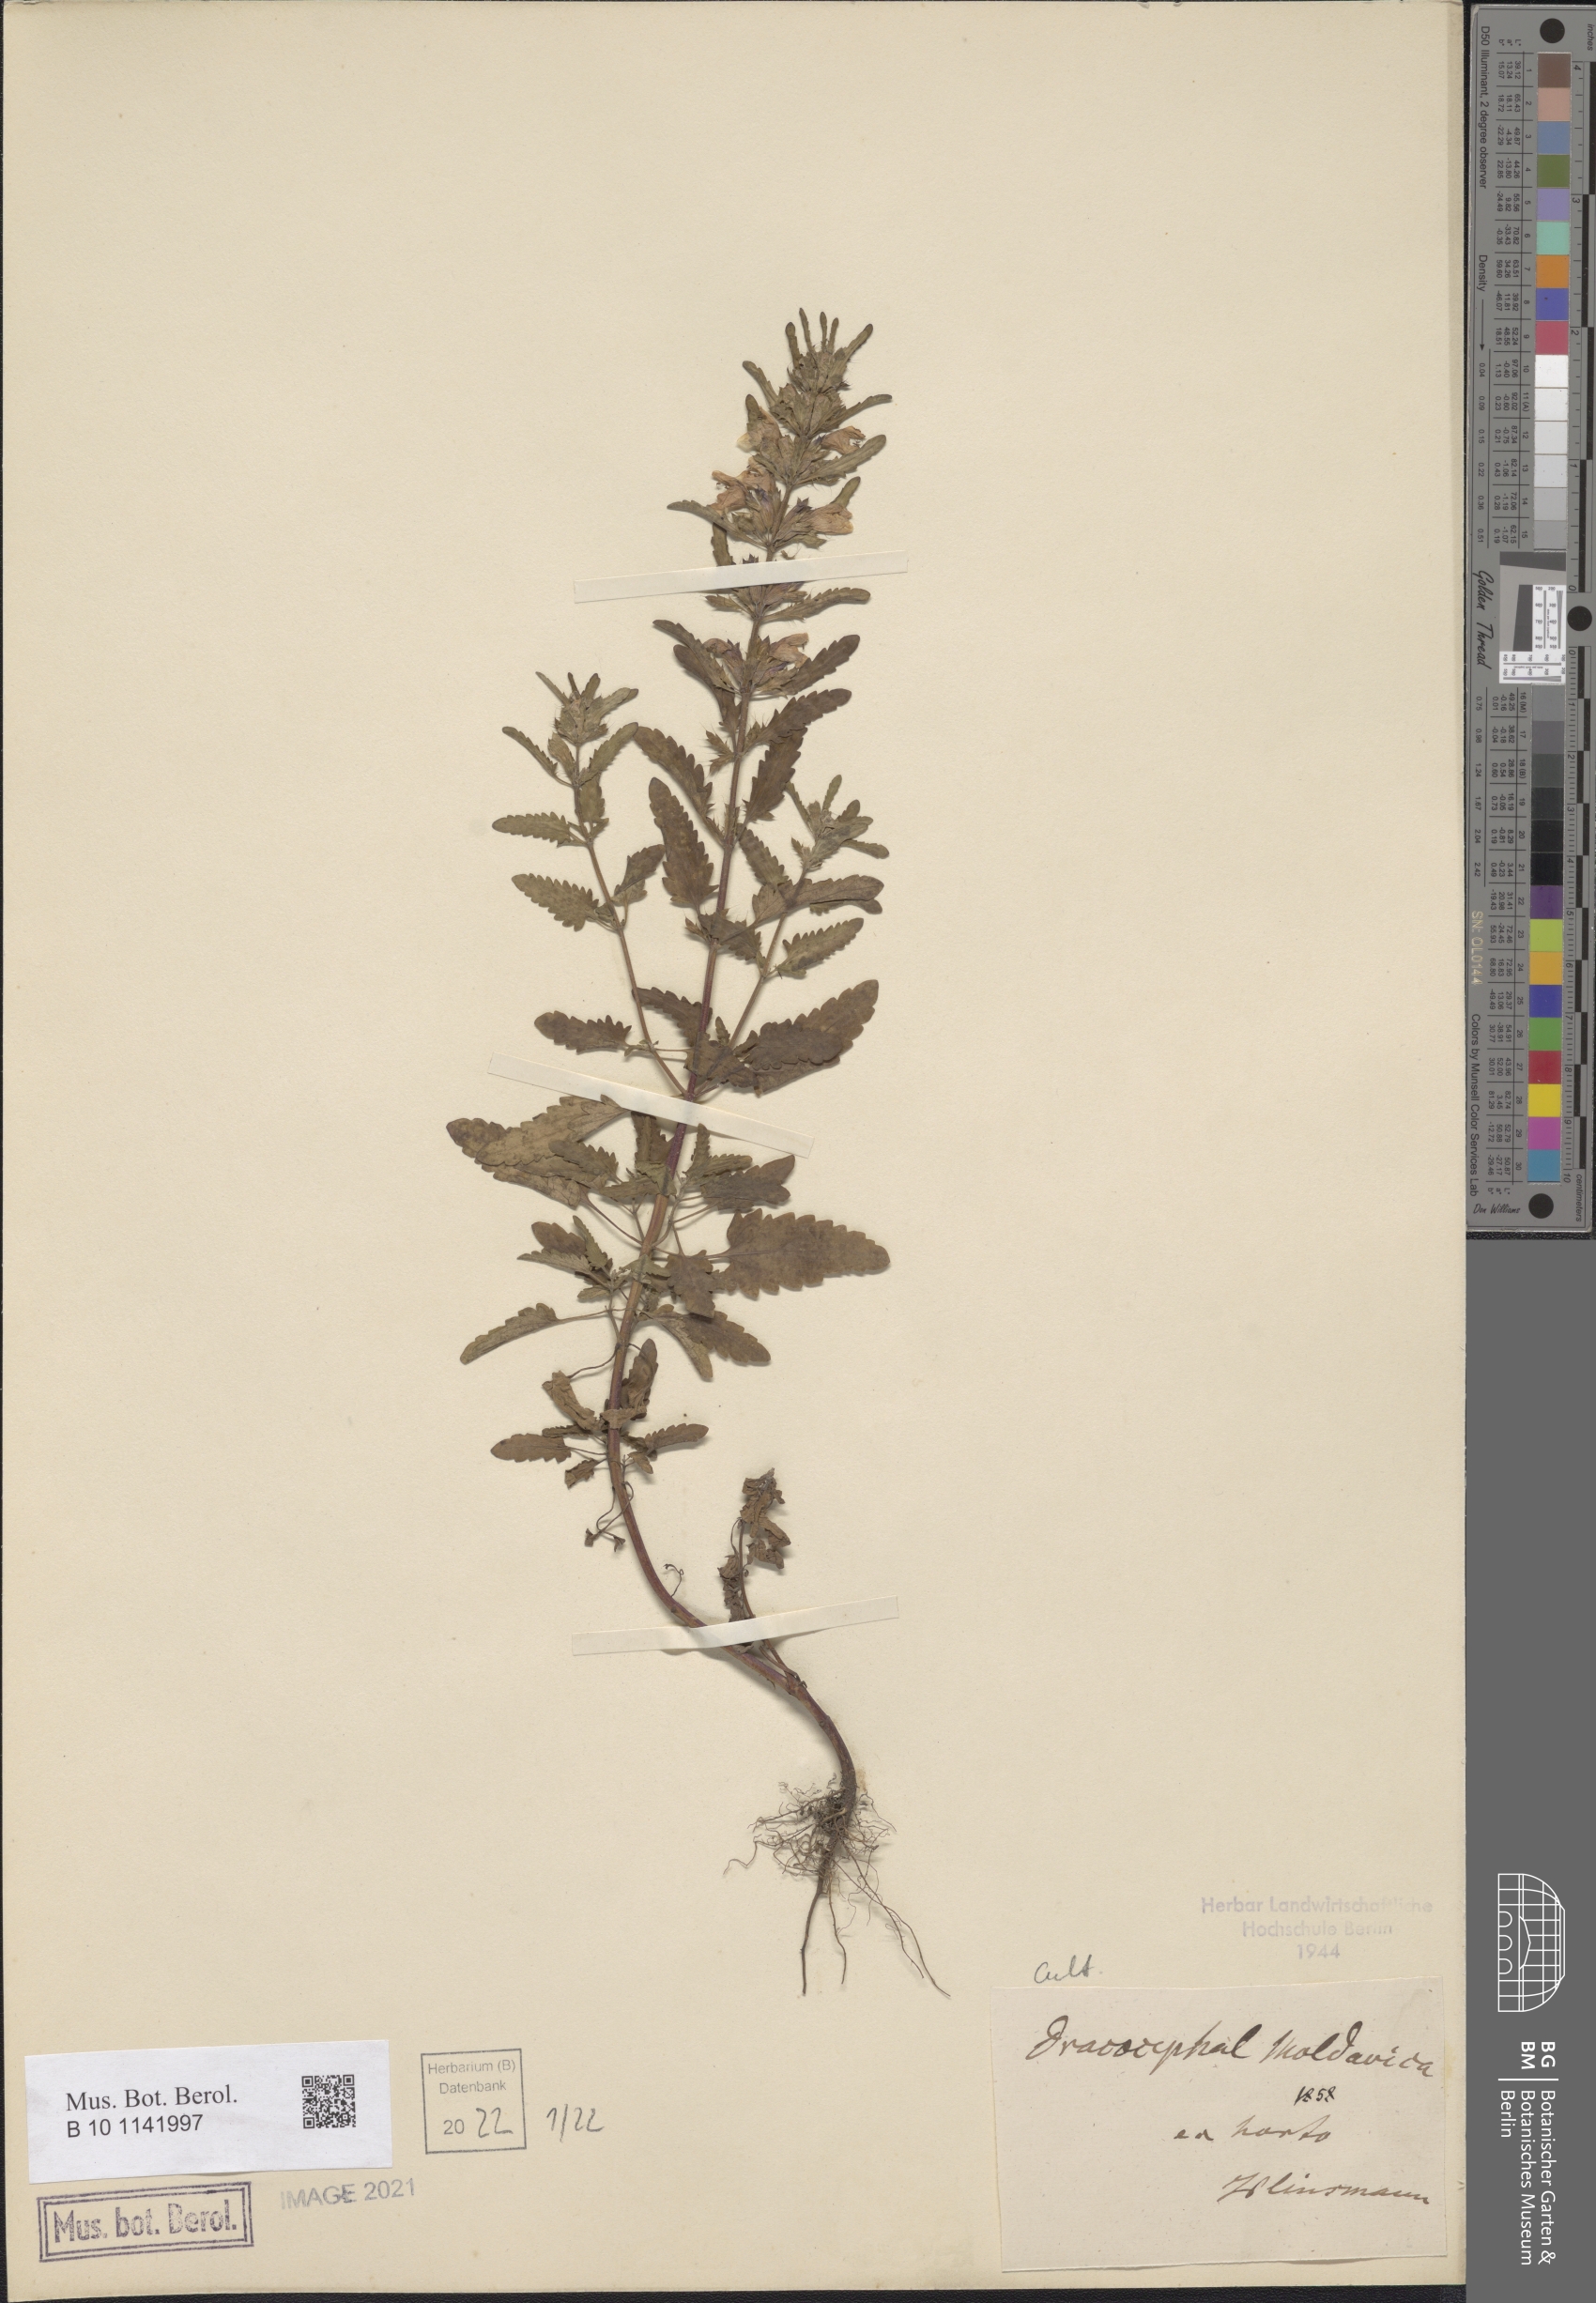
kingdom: Plantae
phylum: Tracheophyta
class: Magnoliopsida
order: Lamiales
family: Lamiaceae
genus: Dracocephalum
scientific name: Dracocephalum moldavica
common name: Moldavian dragonhead
